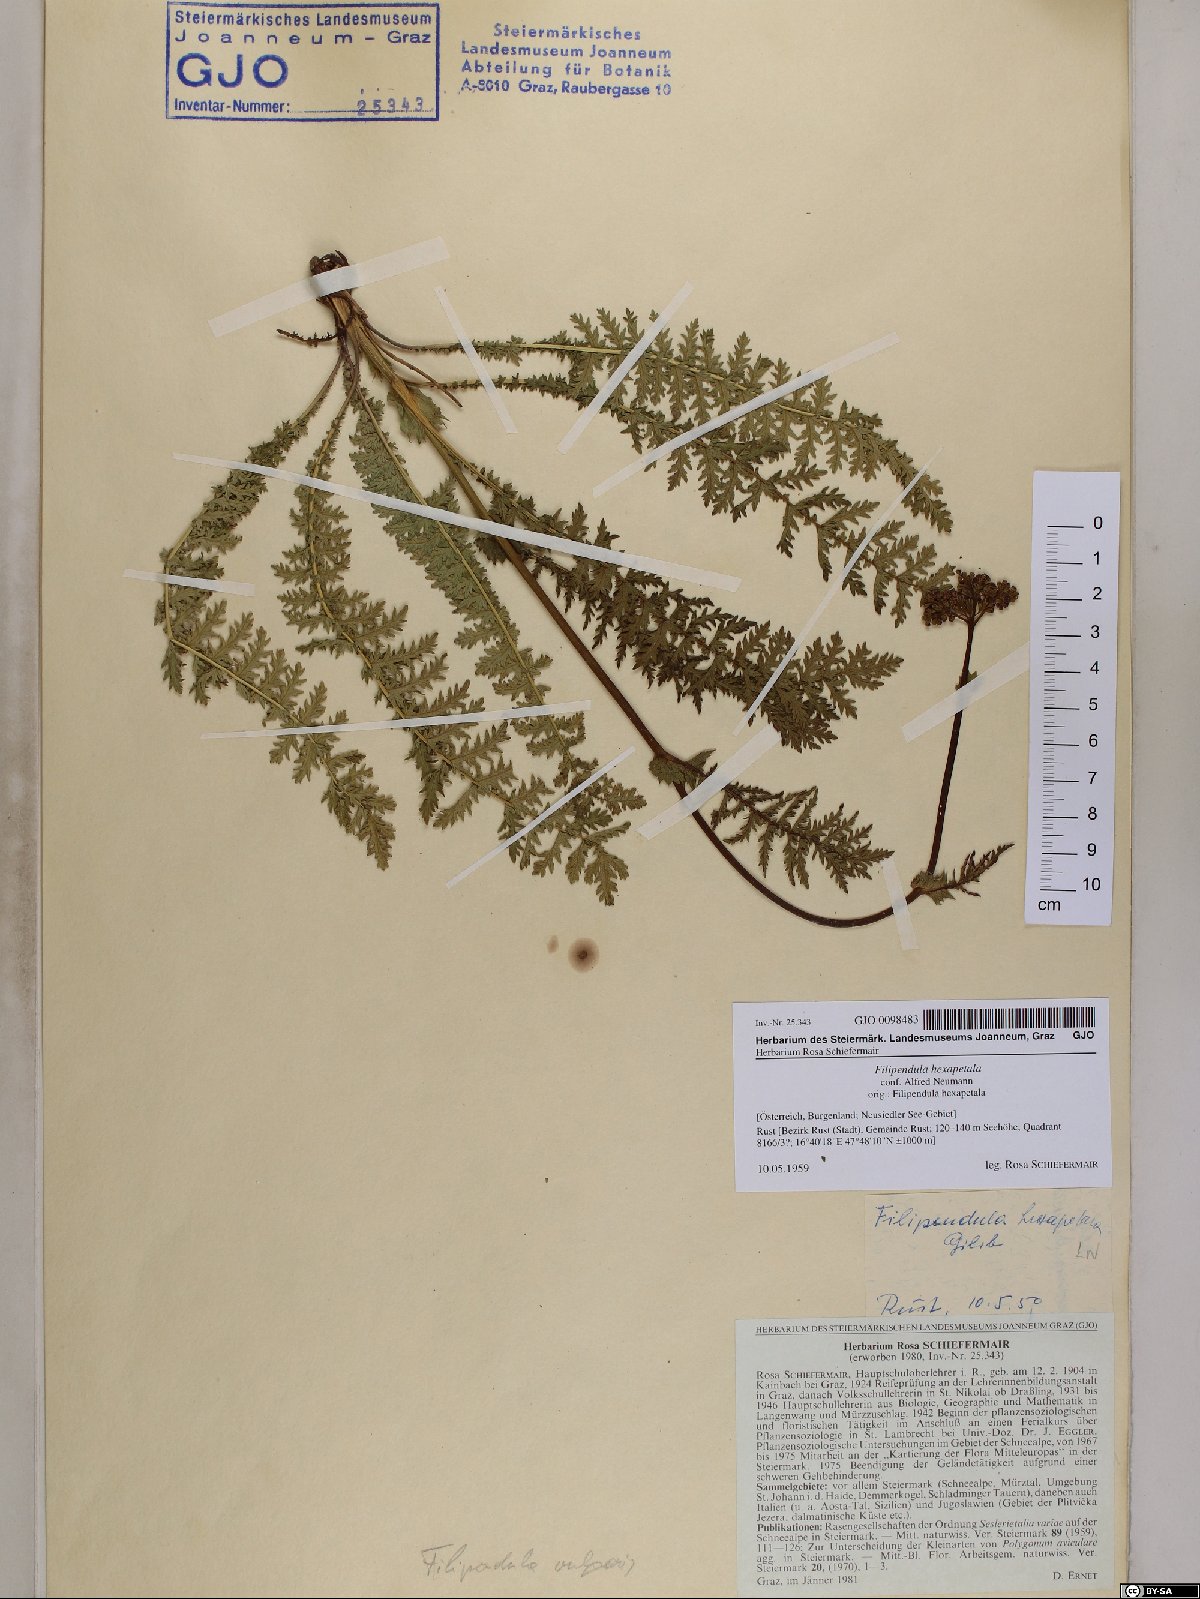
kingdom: Plantae
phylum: Tracheophyta
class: Magnoliopsida
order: Rosales
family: Rosaceae
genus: Filipendula
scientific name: Filipendula vulgaris
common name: Dropwort
